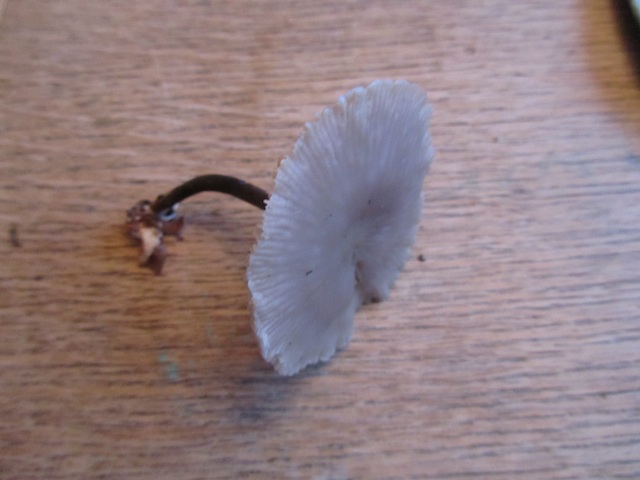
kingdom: Fungi
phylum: Basidiomycota
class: Agaricomycetes
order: Agaricales
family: Marasmiaceae
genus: Marasmius
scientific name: Marasmius wynneae
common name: hvælvet bruskhat
